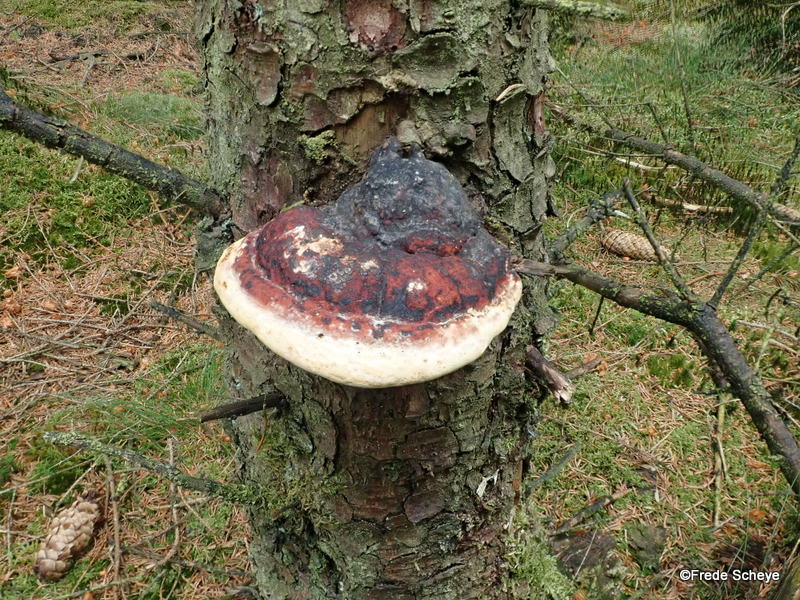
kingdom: Fungi
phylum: Basidiomycota
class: Agaricomycetes
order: Polyporales
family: Fomitopsidaceae
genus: Fomitopsis
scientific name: Fomitopsis pinicola
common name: randbæltet hovporesvamp
